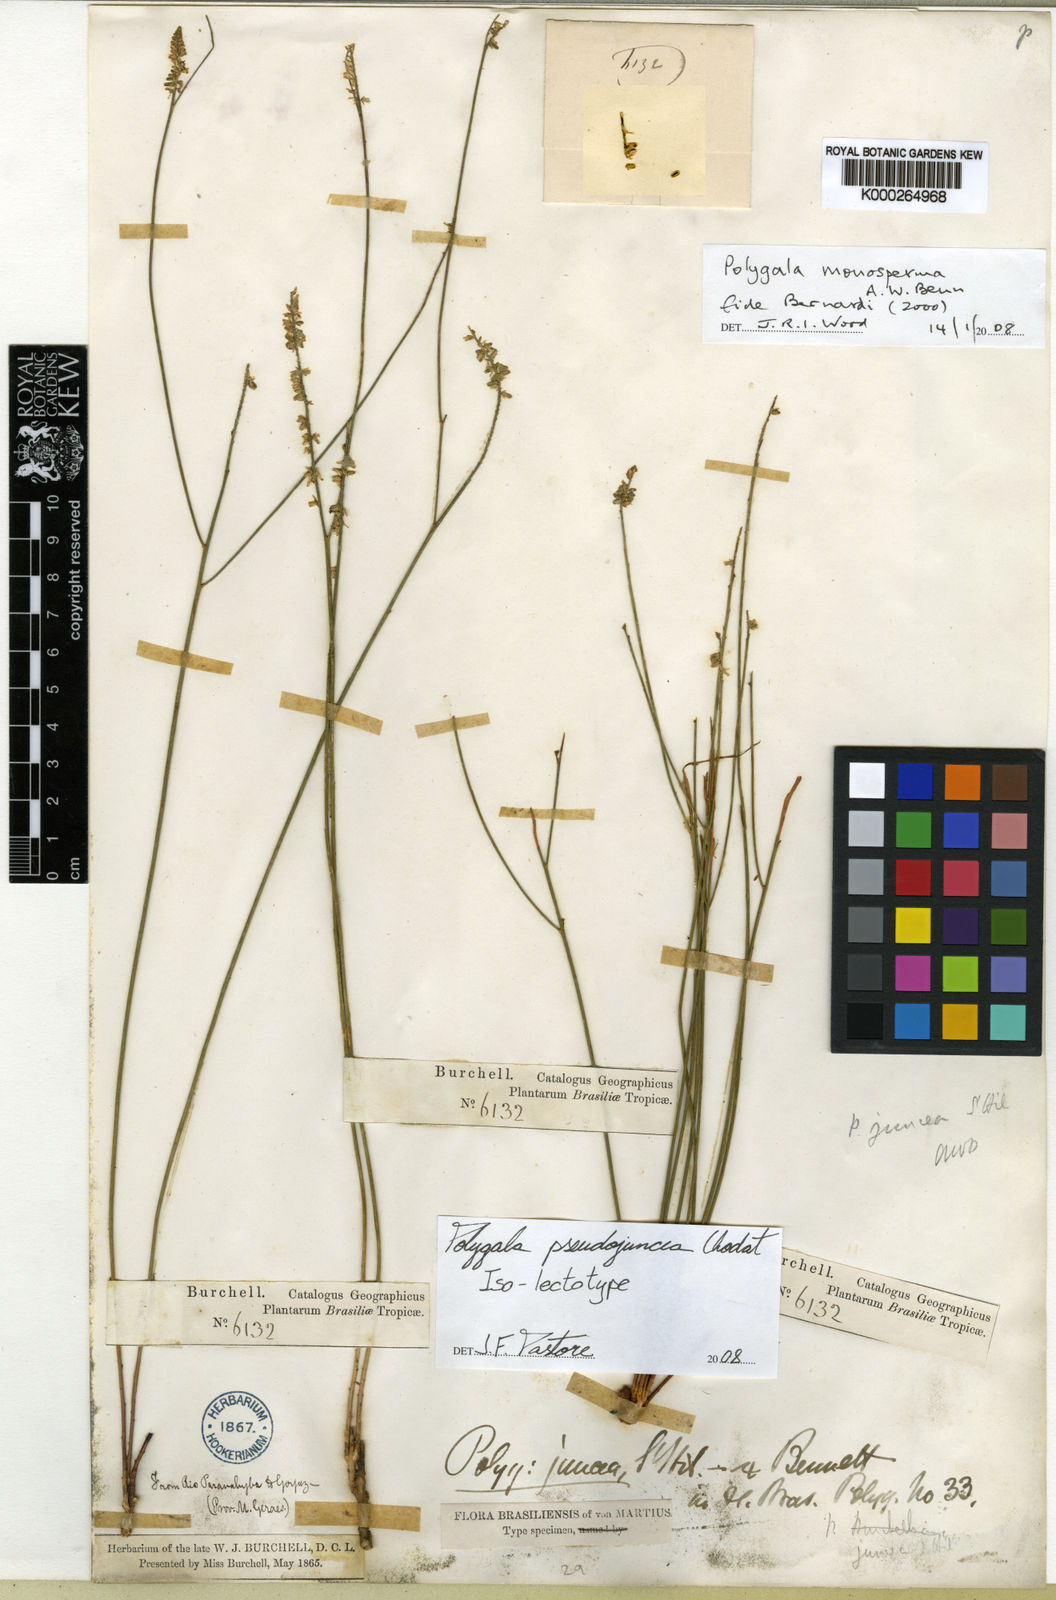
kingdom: Plantae
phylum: Tracheophyta
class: Magnoliopsida
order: Fabales
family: Polygalaceae
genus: Polygala
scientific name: Polygala equisetoides
